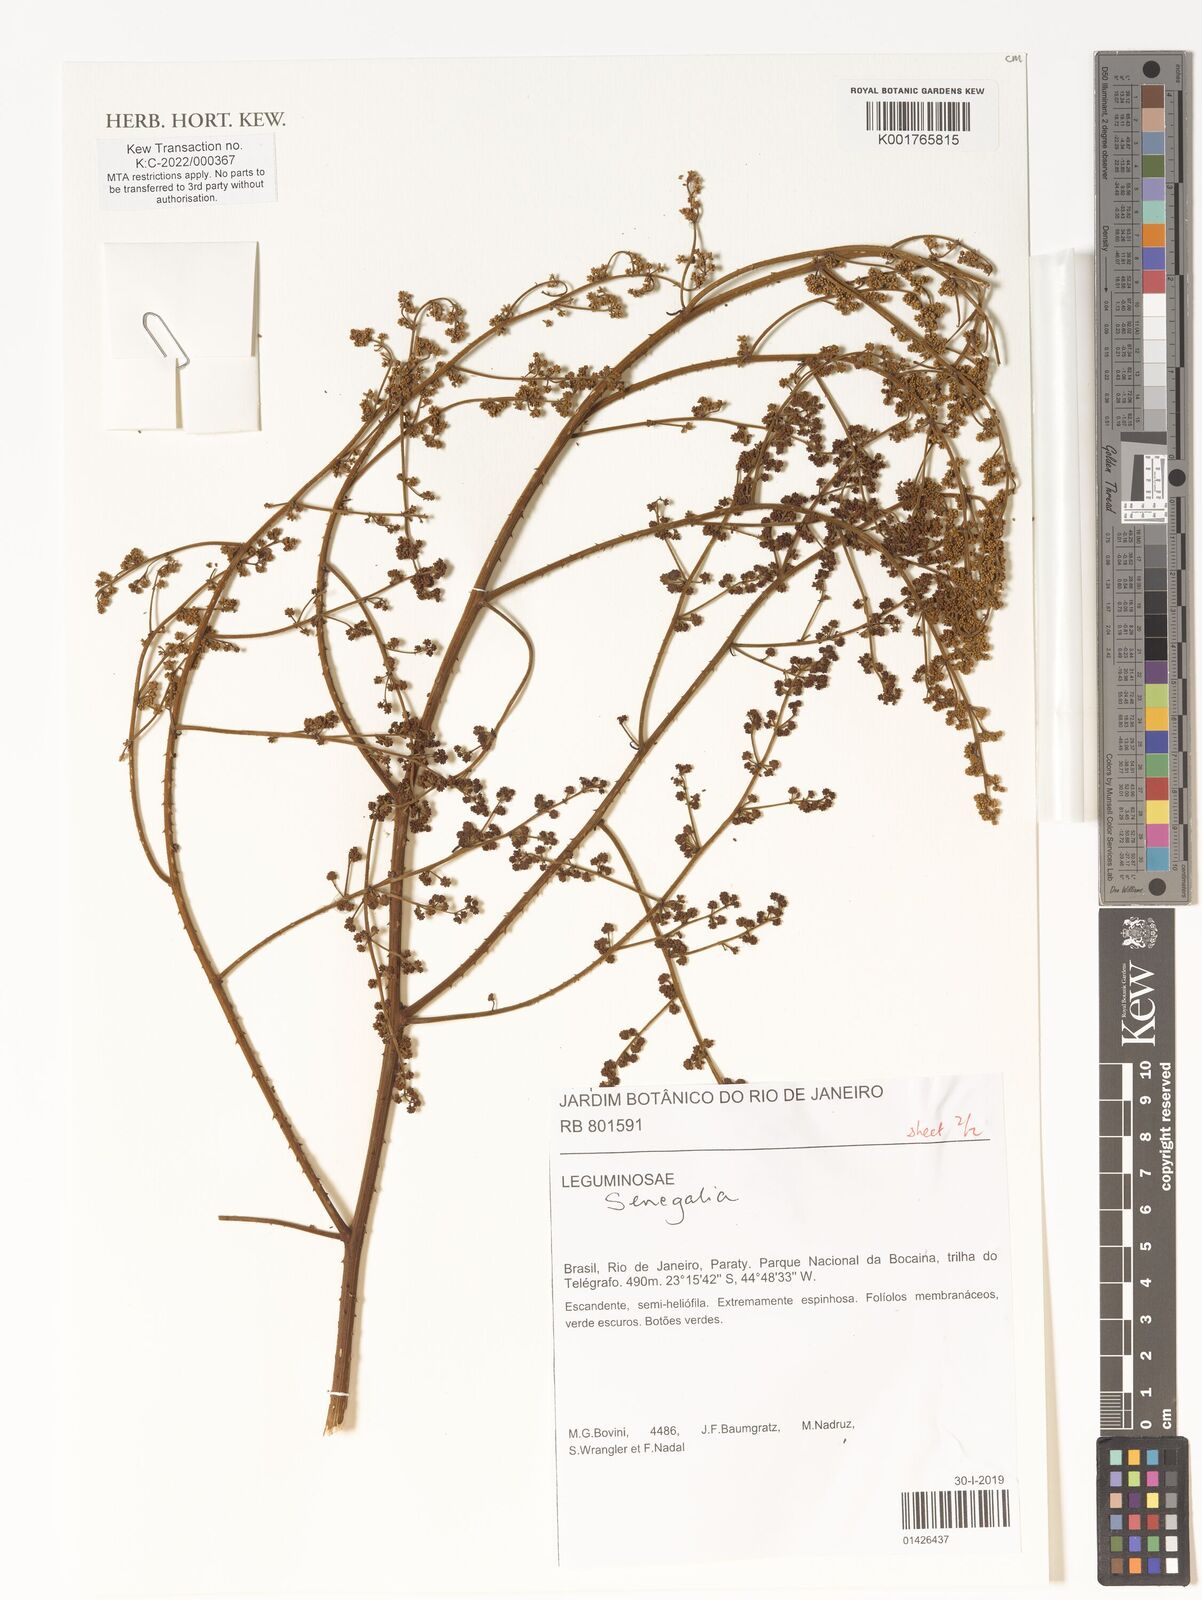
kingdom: Plantae
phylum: Tracheophyta
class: Magnoliopsida
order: Fabales
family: Fabaceae
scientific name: Fabaceae
